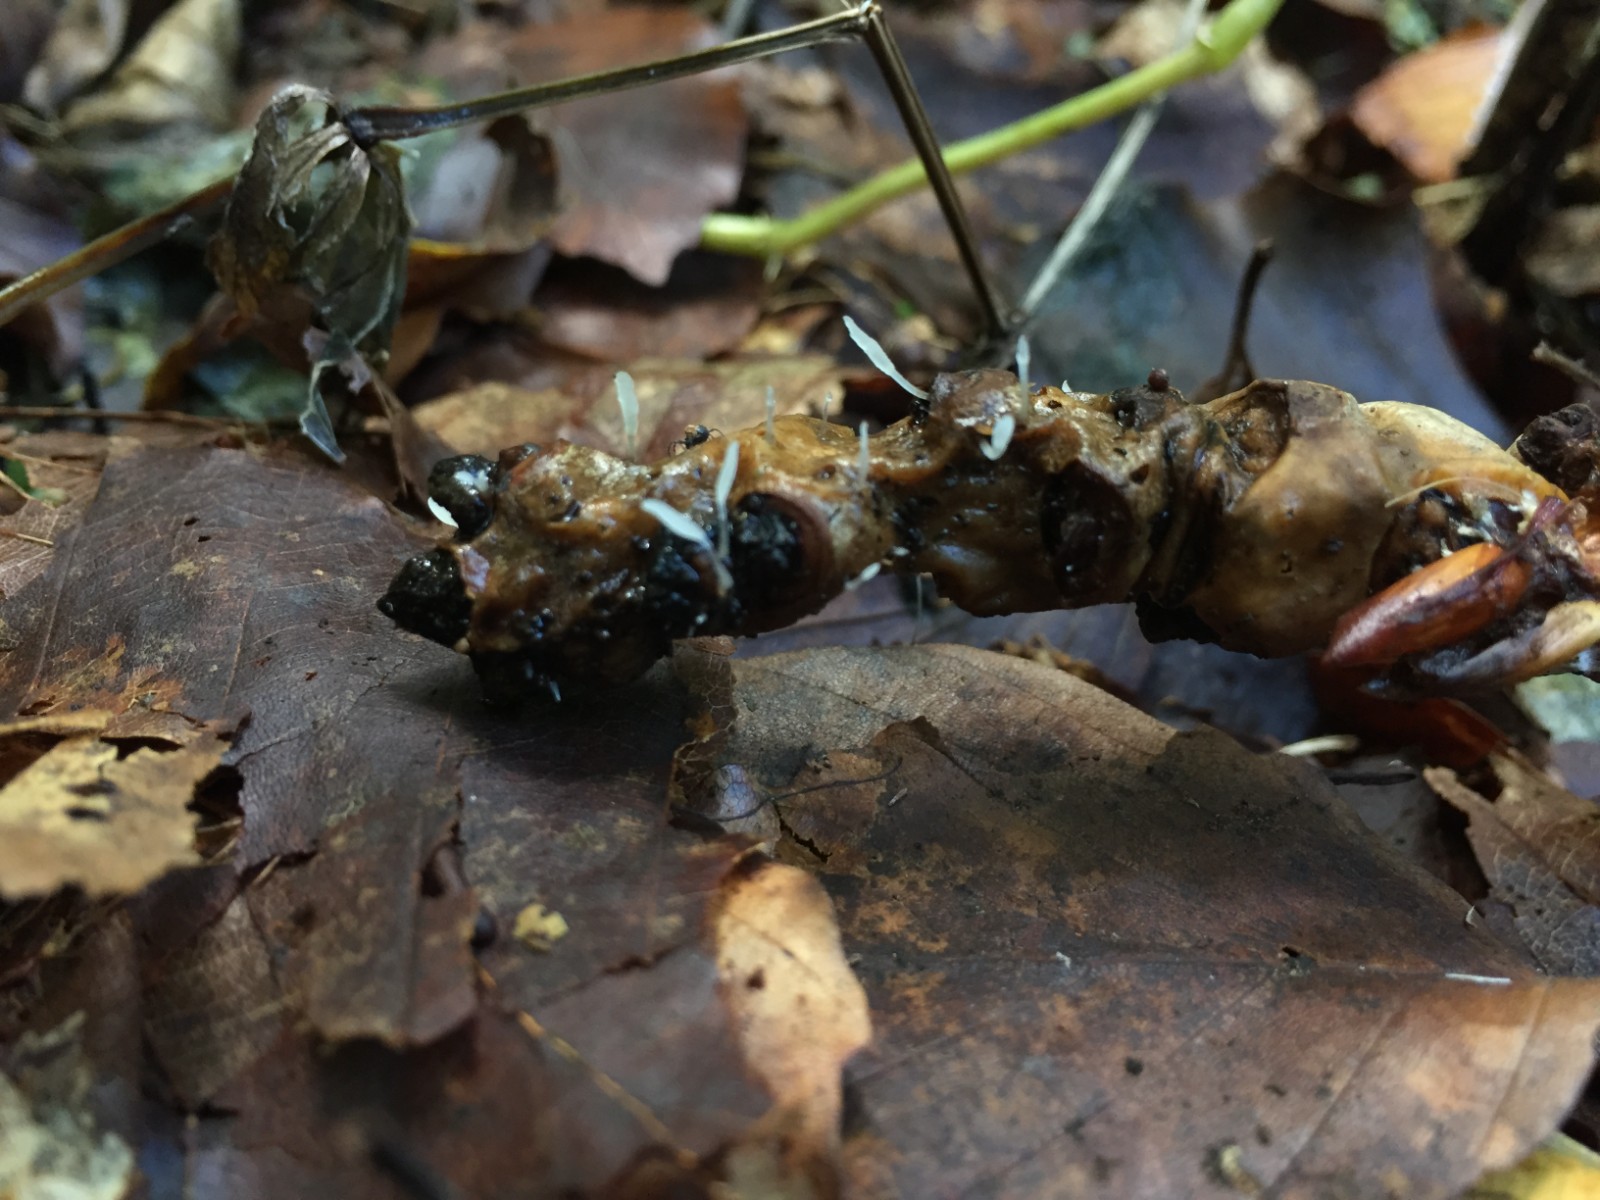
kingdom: Fungi
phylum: Basidiomycota
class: Agaricomycetes
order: Agaricales
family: Typhulaceae
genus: Typhula
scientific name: Typhula spathulata
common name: aske-trådkølle
